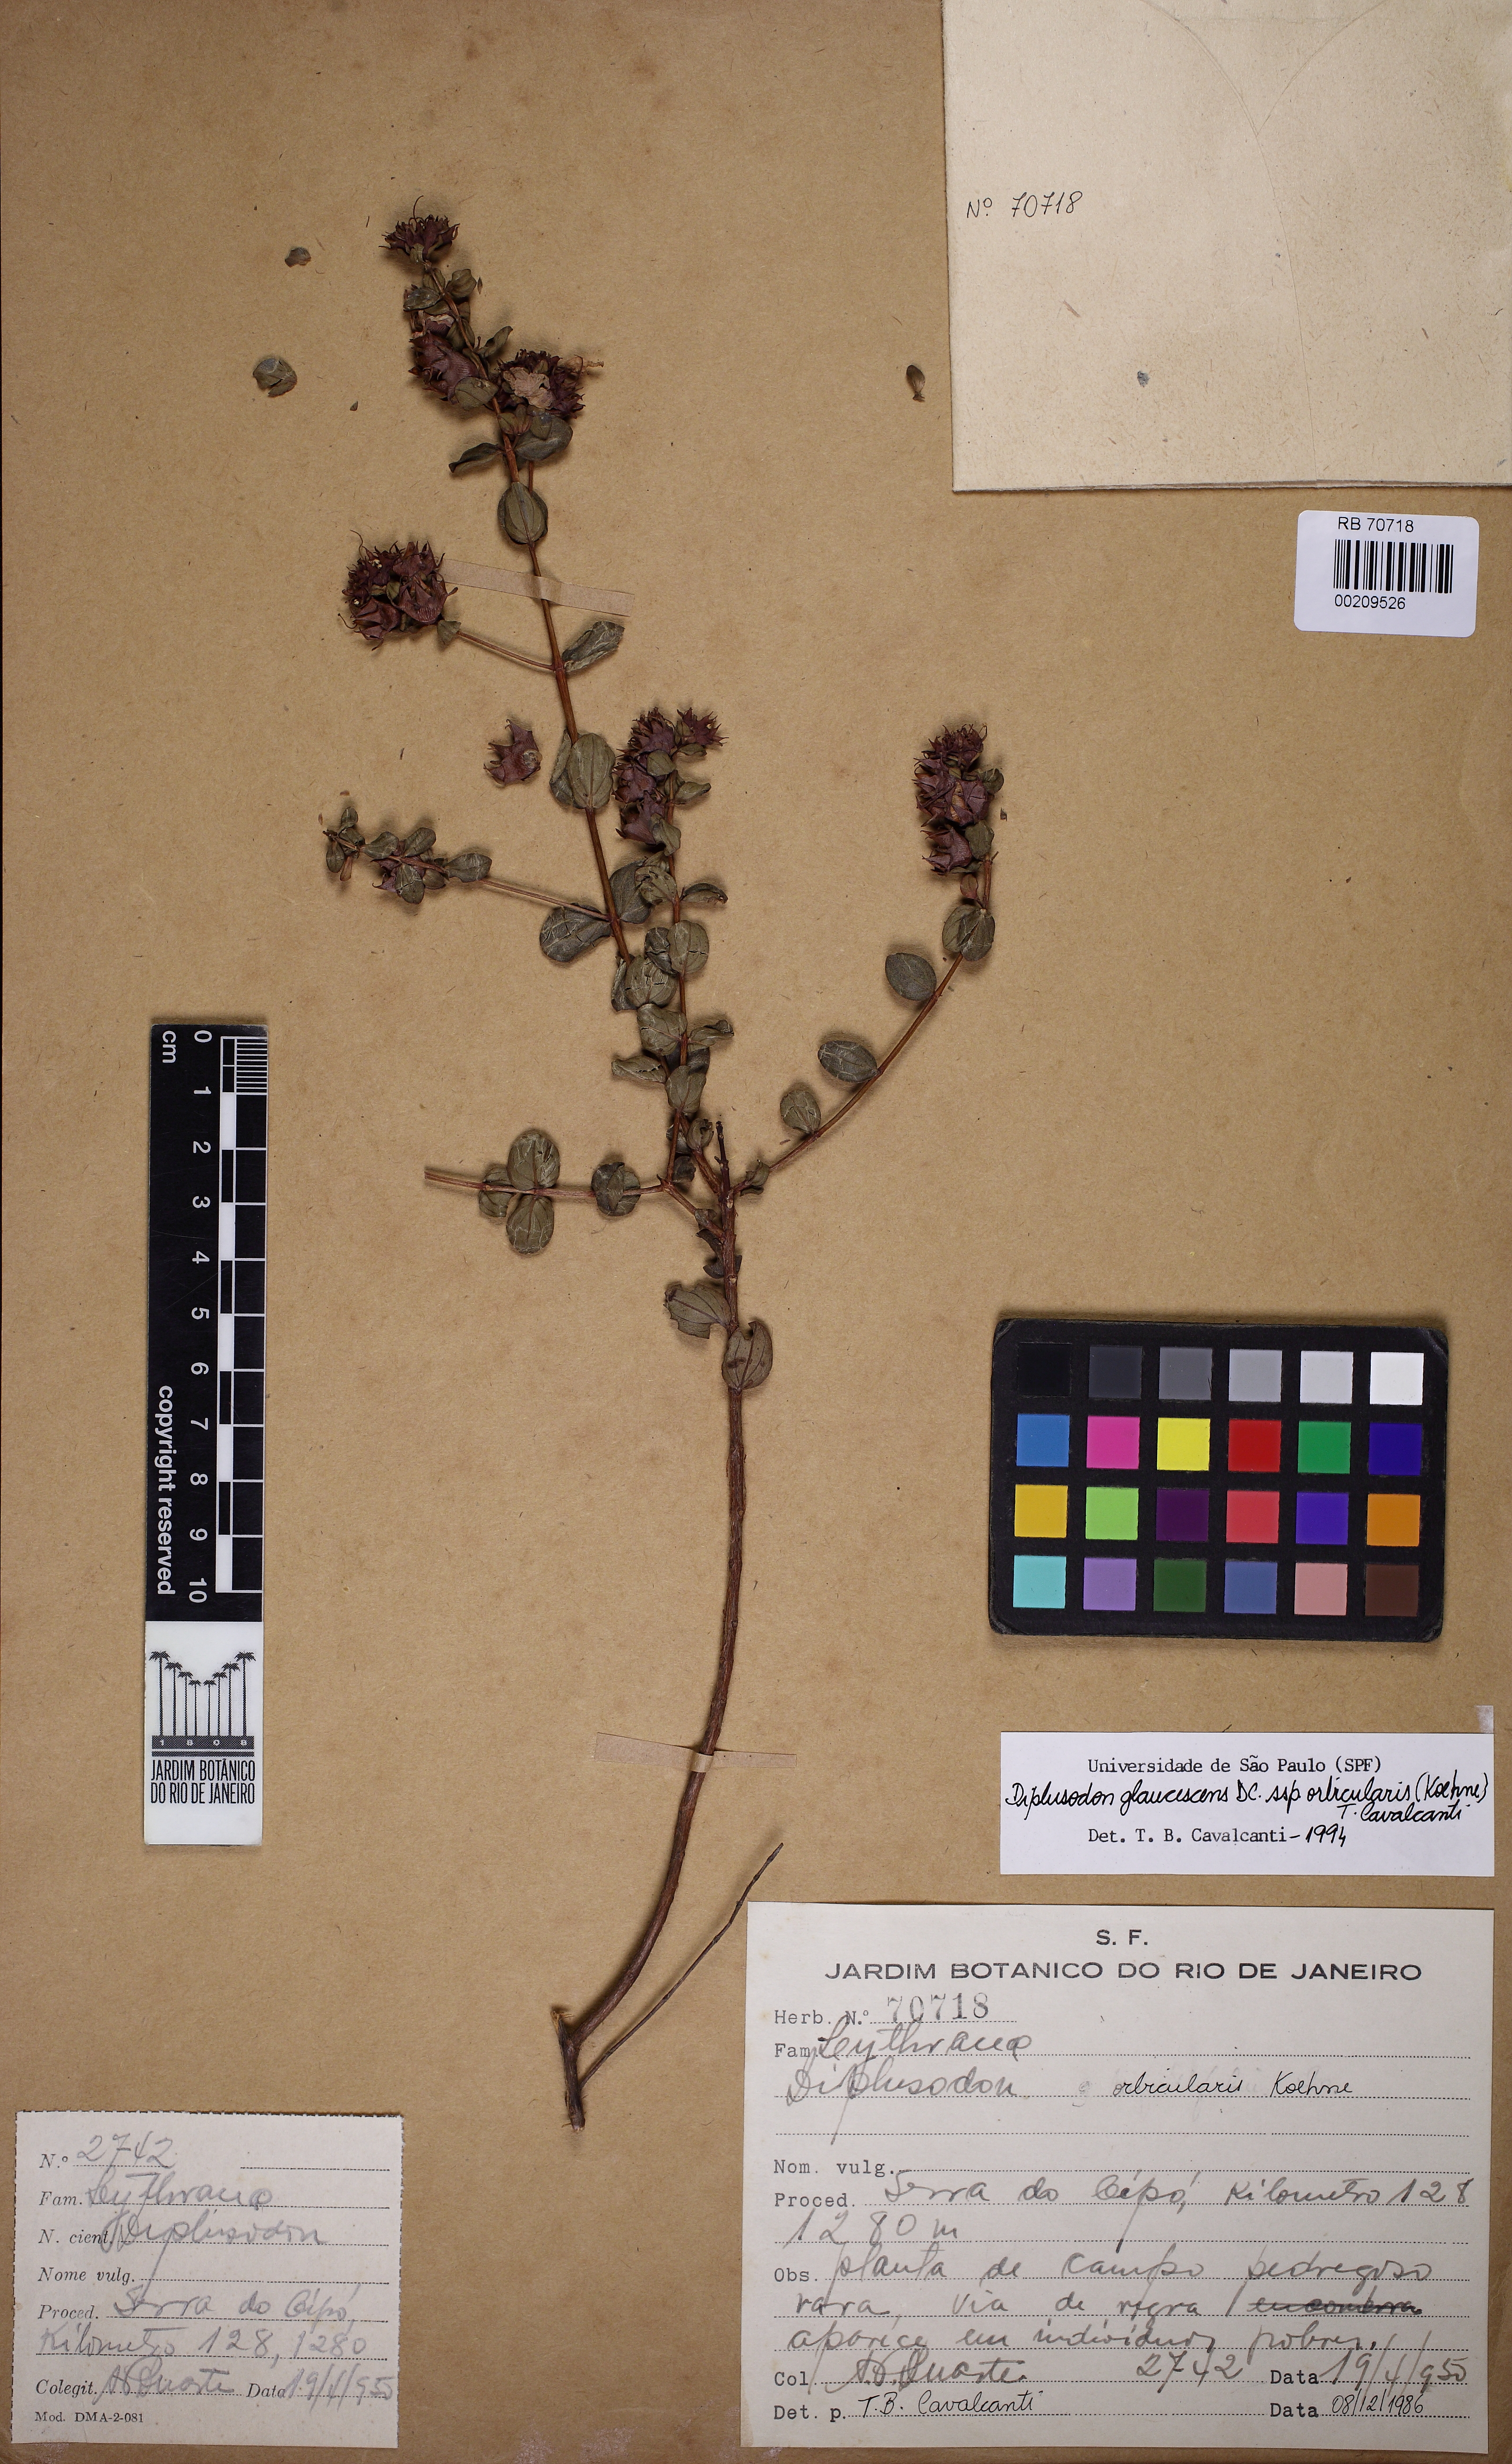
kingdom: Plantae
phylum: Tracheophyta
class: Magnoliopsida
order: Myrtales
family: Lythraceae
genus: Diplusodon
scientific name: Diplusodon glaucescens
